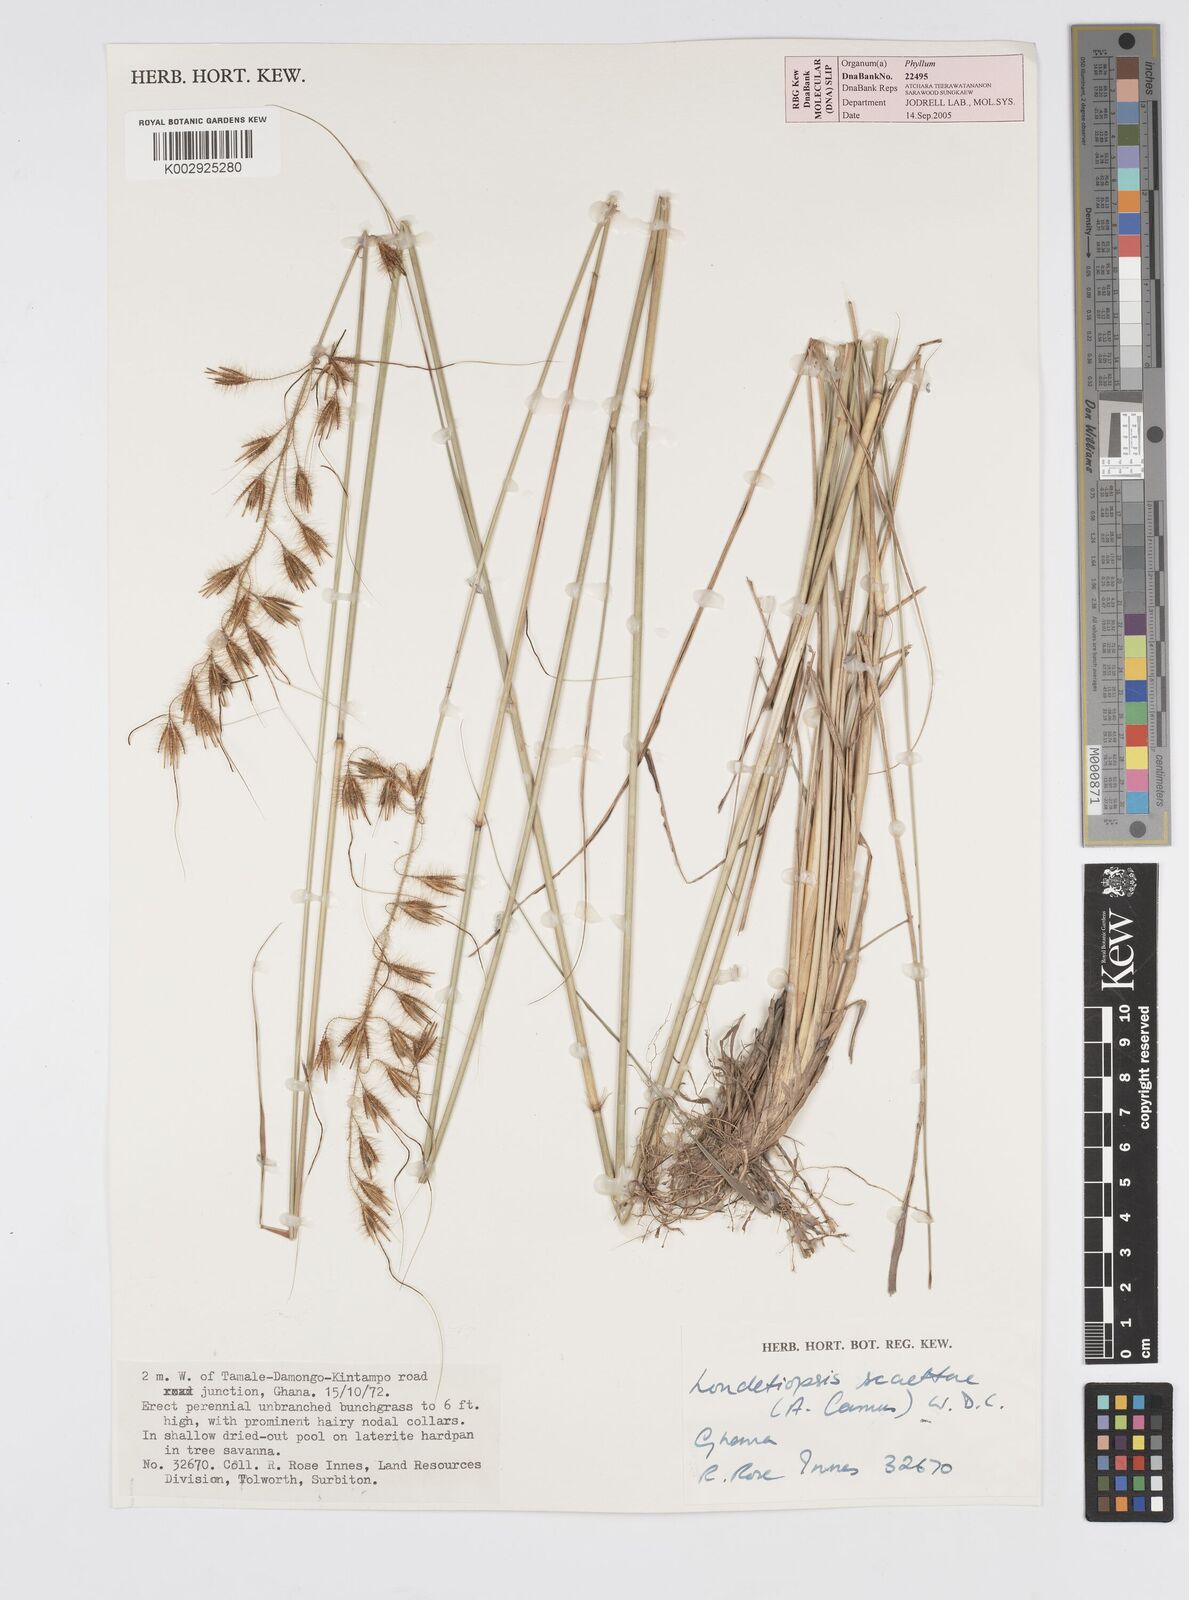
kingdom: Plantae
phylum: Tracheophyta
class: Liliopsida
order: Poales
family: Poaceae
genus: Loudetiopsis
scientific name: Loudetiopsis scaettae
